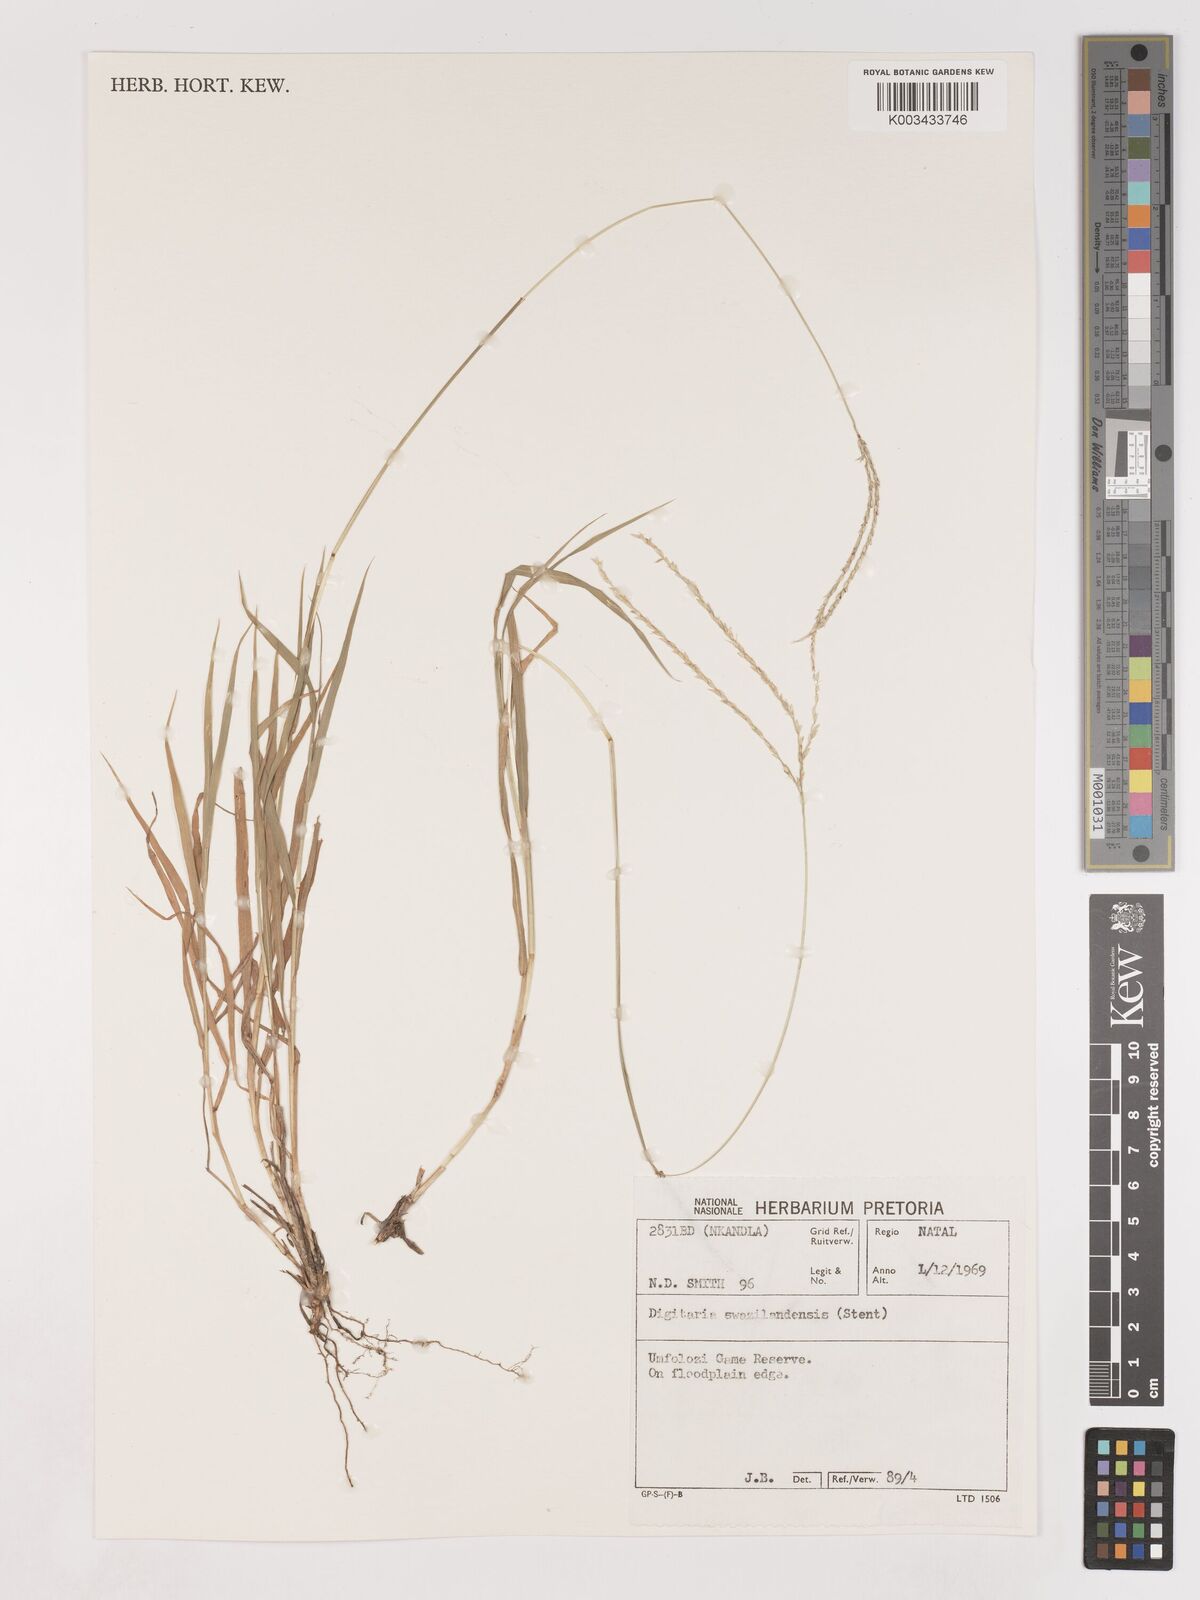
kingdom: Plantae
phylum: Tracheophyta
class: Liliopsida
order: Poales
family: Poaceae
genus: Digitaria
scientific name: Digitaria didactyla
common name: Blue couch
